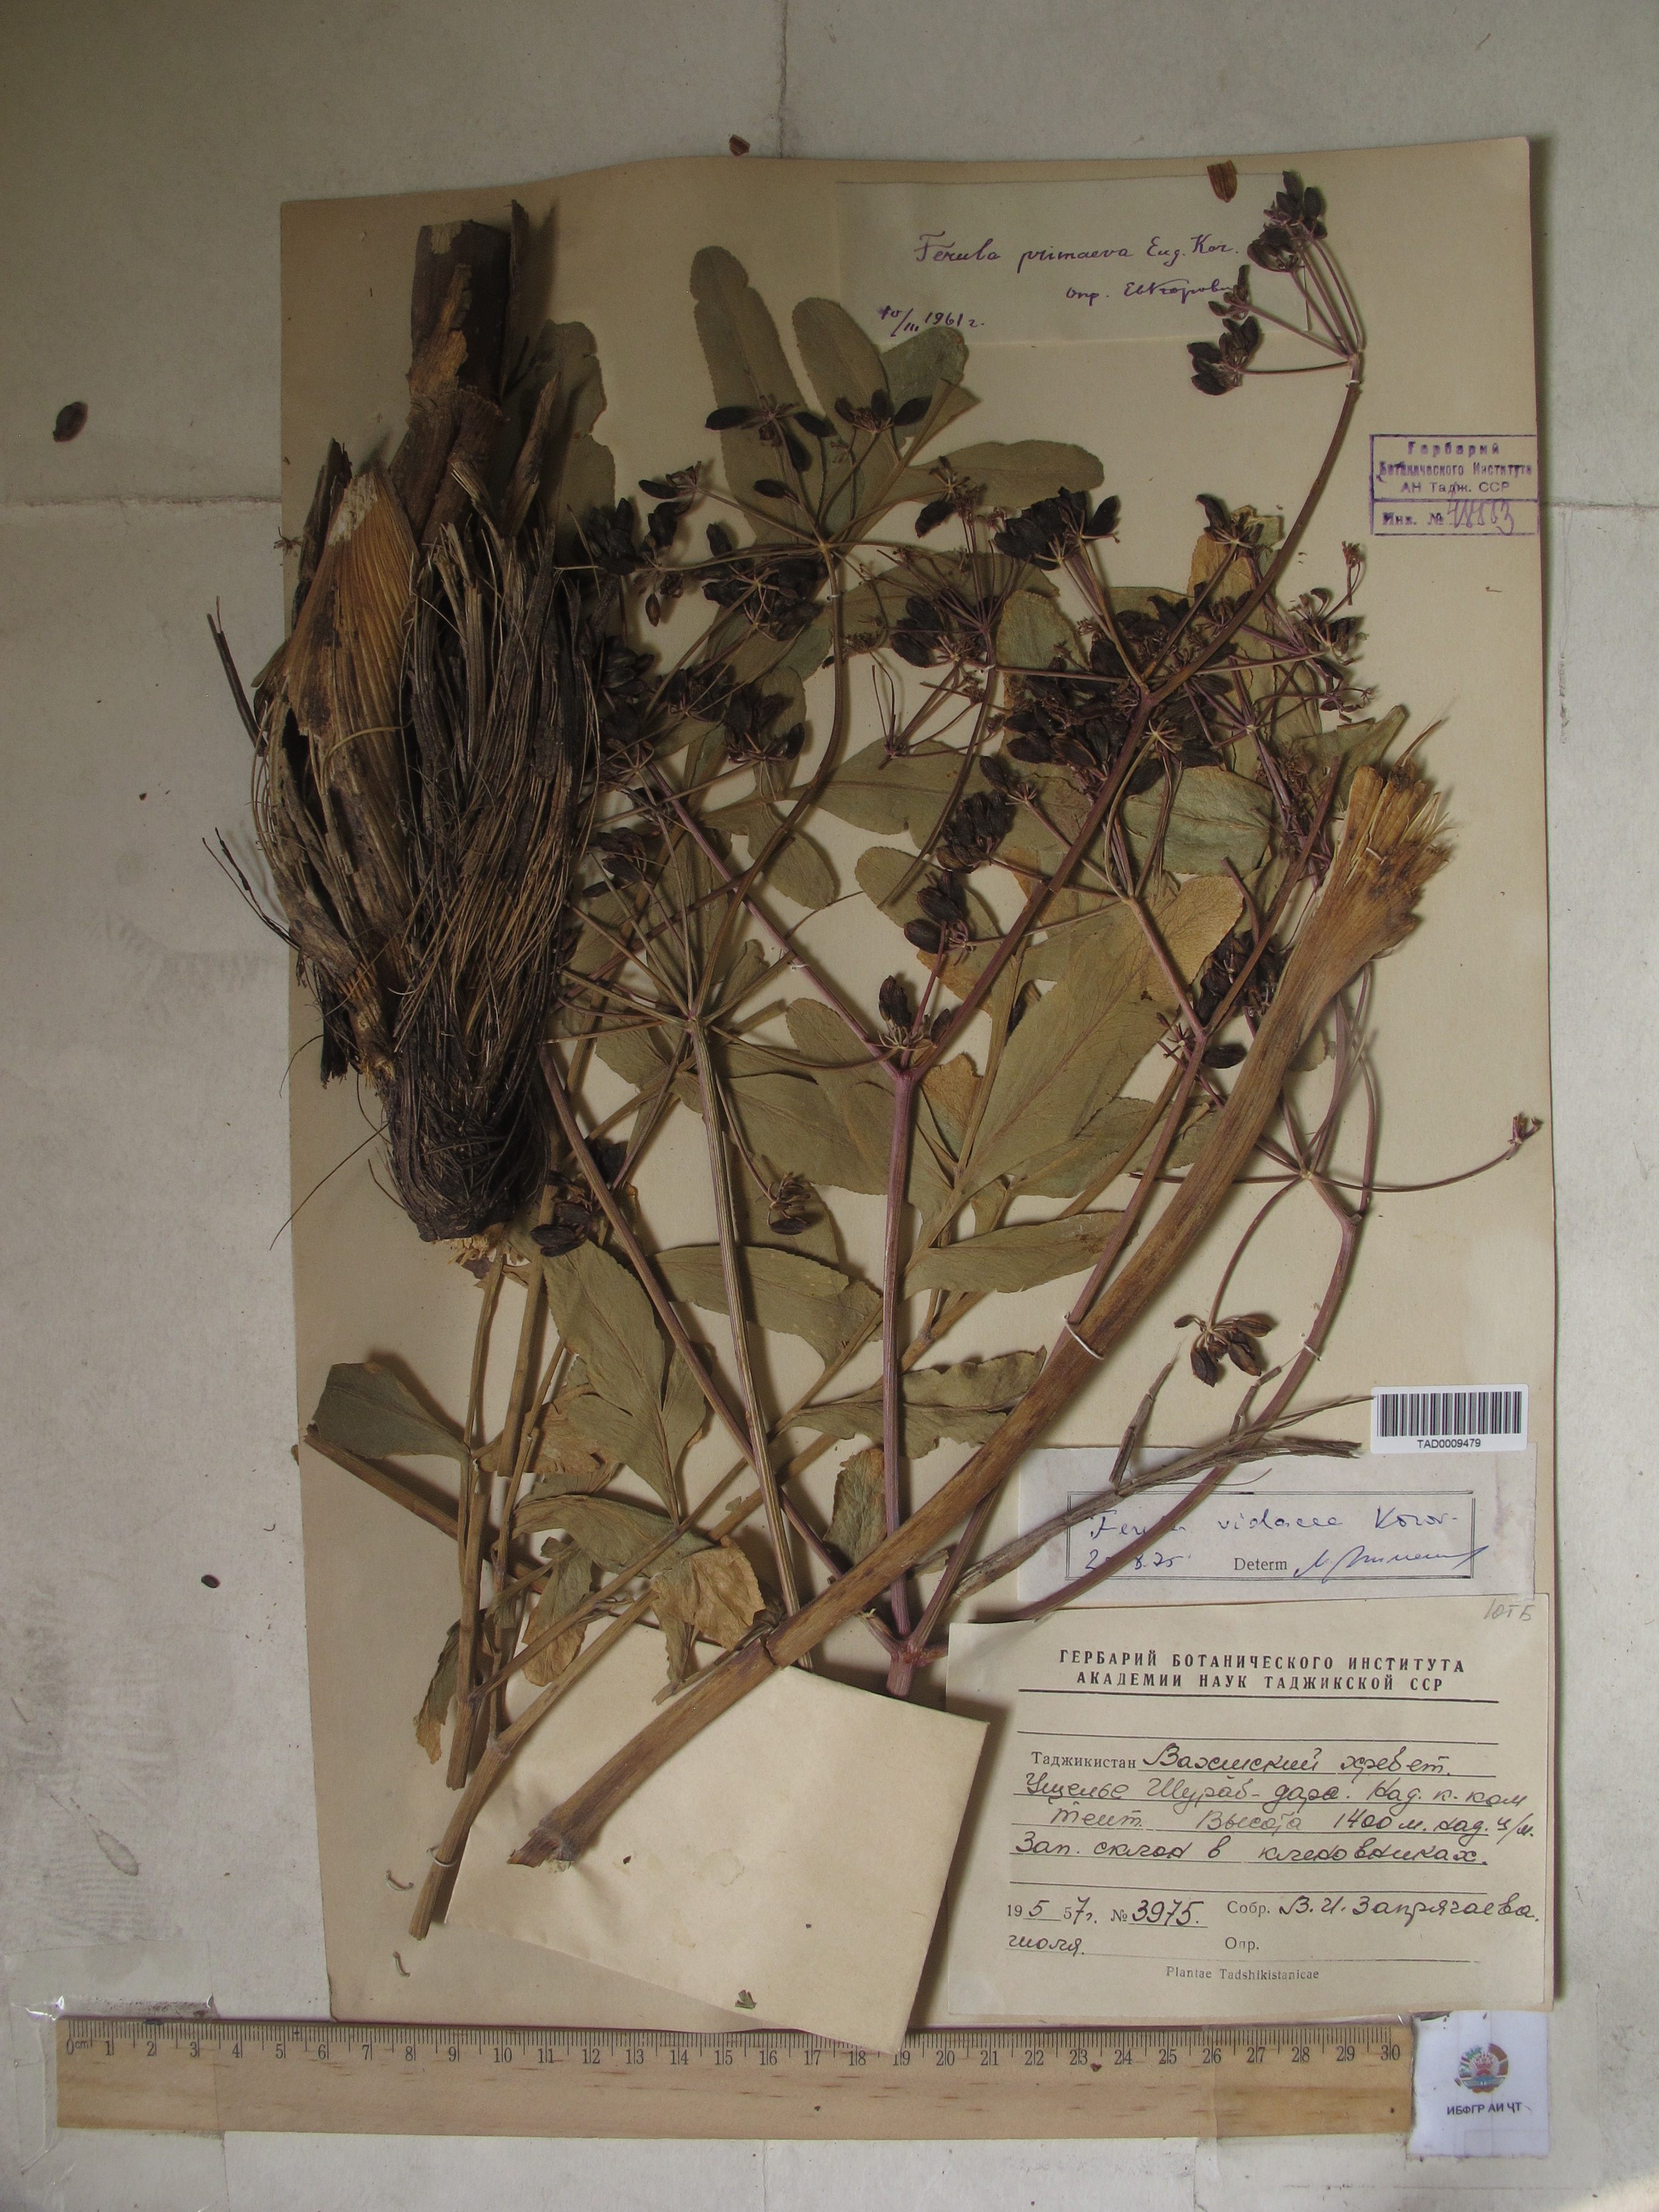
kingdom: Plantae
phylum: Tracheophyta
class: Magnoliopsida
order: Apiales
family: Apiaceae
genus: Ferula
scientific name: Ferula violacea
